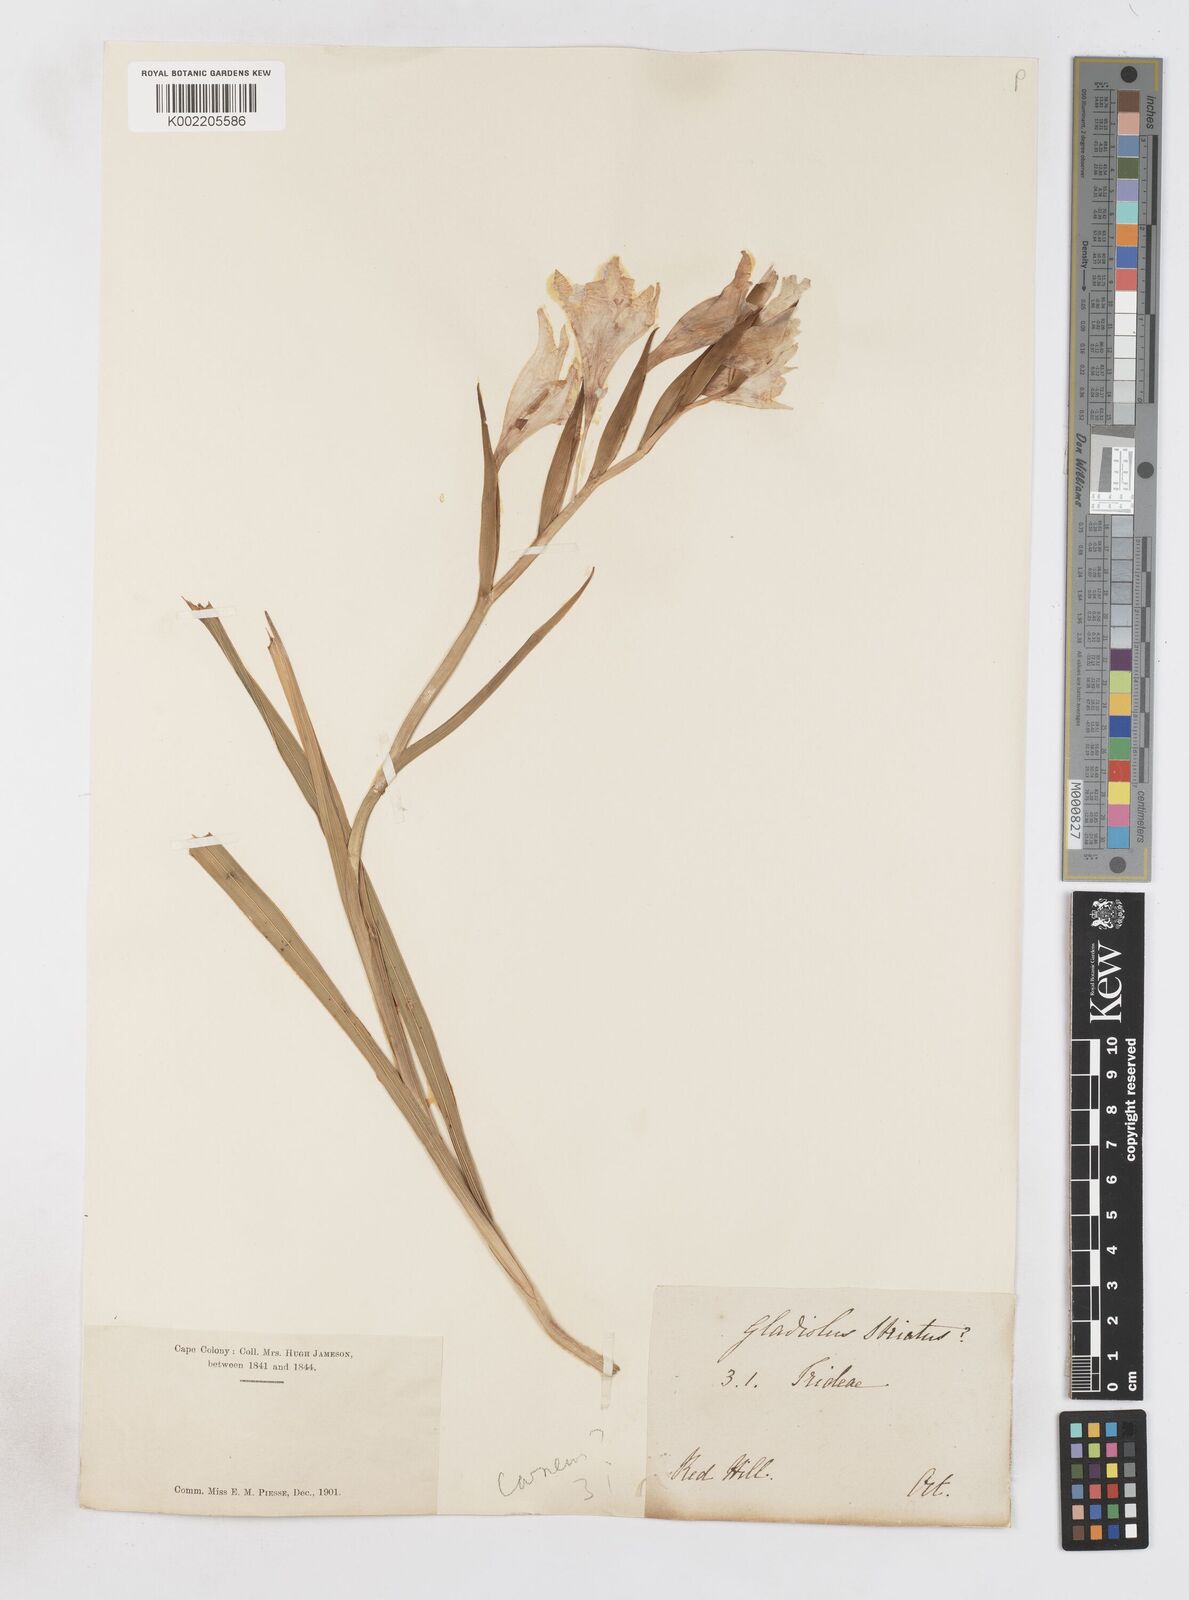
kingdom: Plantae
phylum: Tracheophyta
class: Liliopsida
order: Asparagales
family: Iridaceae
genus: Gladiolus
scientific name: Gladiolus carneus
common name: Painted-lady
